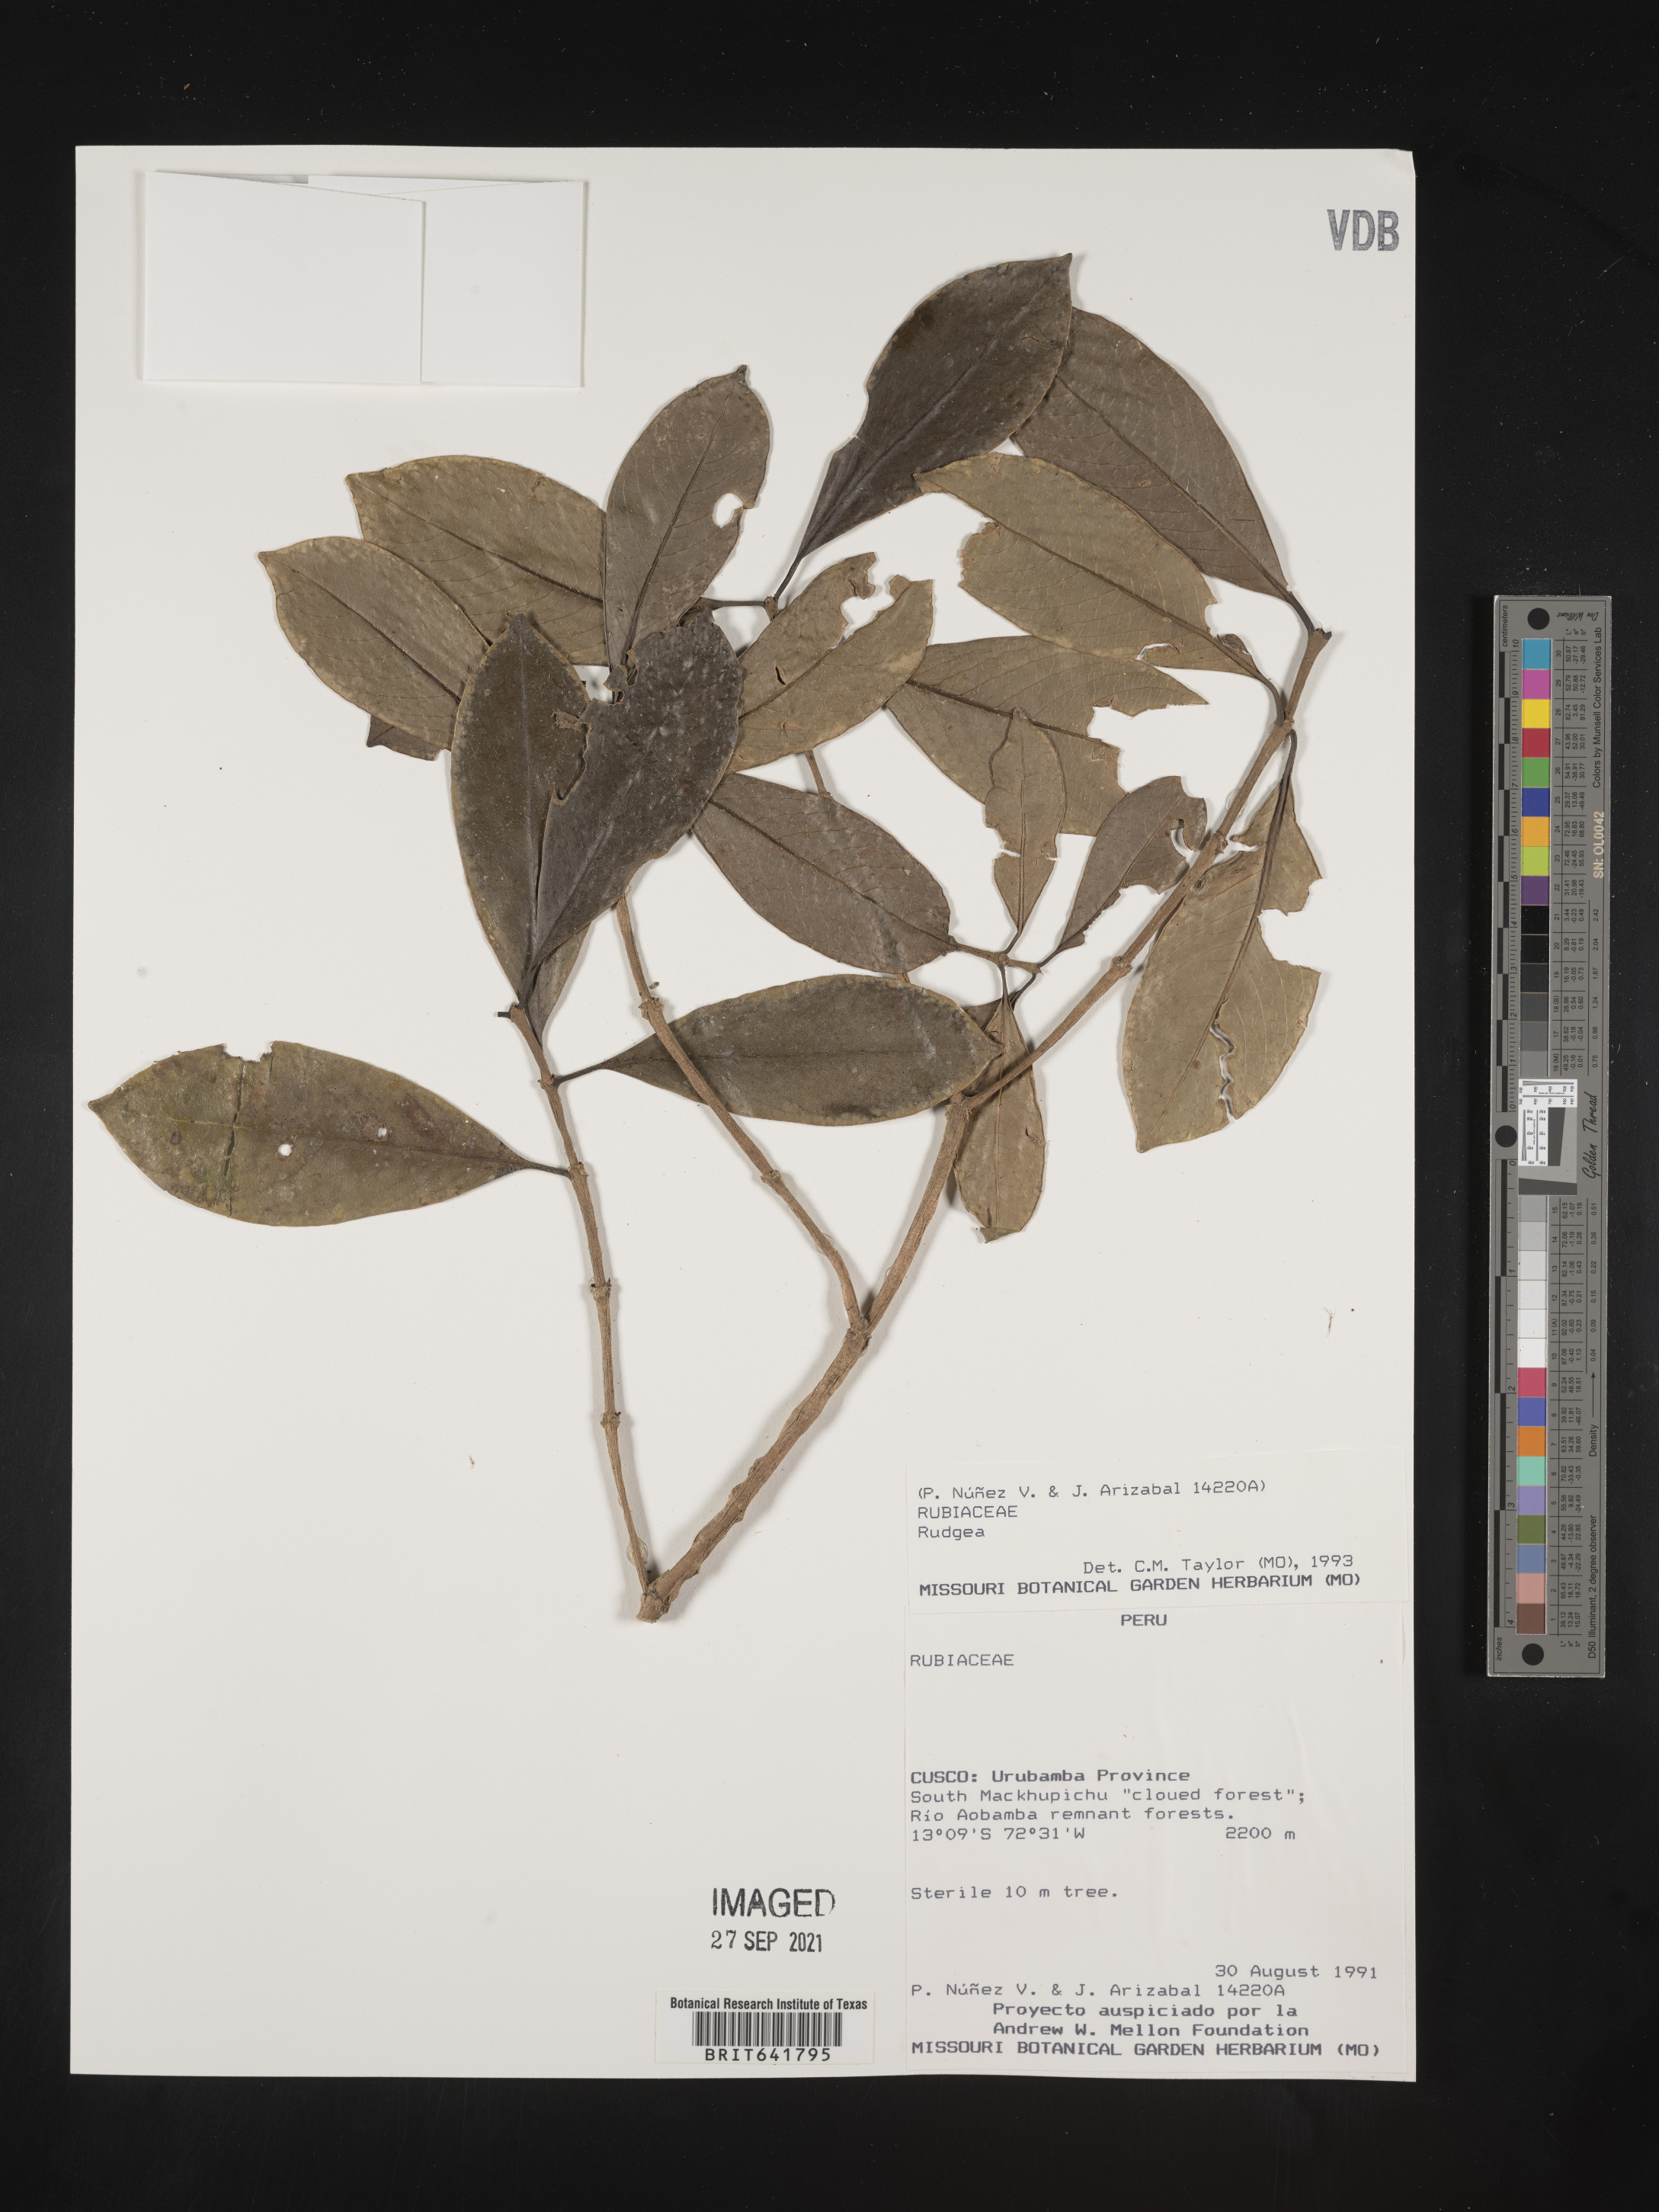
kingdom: Plantae
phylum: Tracheophyta
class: Magnoliopsida
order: Gentianales
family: Rubiaceae
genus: Rudgea
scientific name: Rudgea
